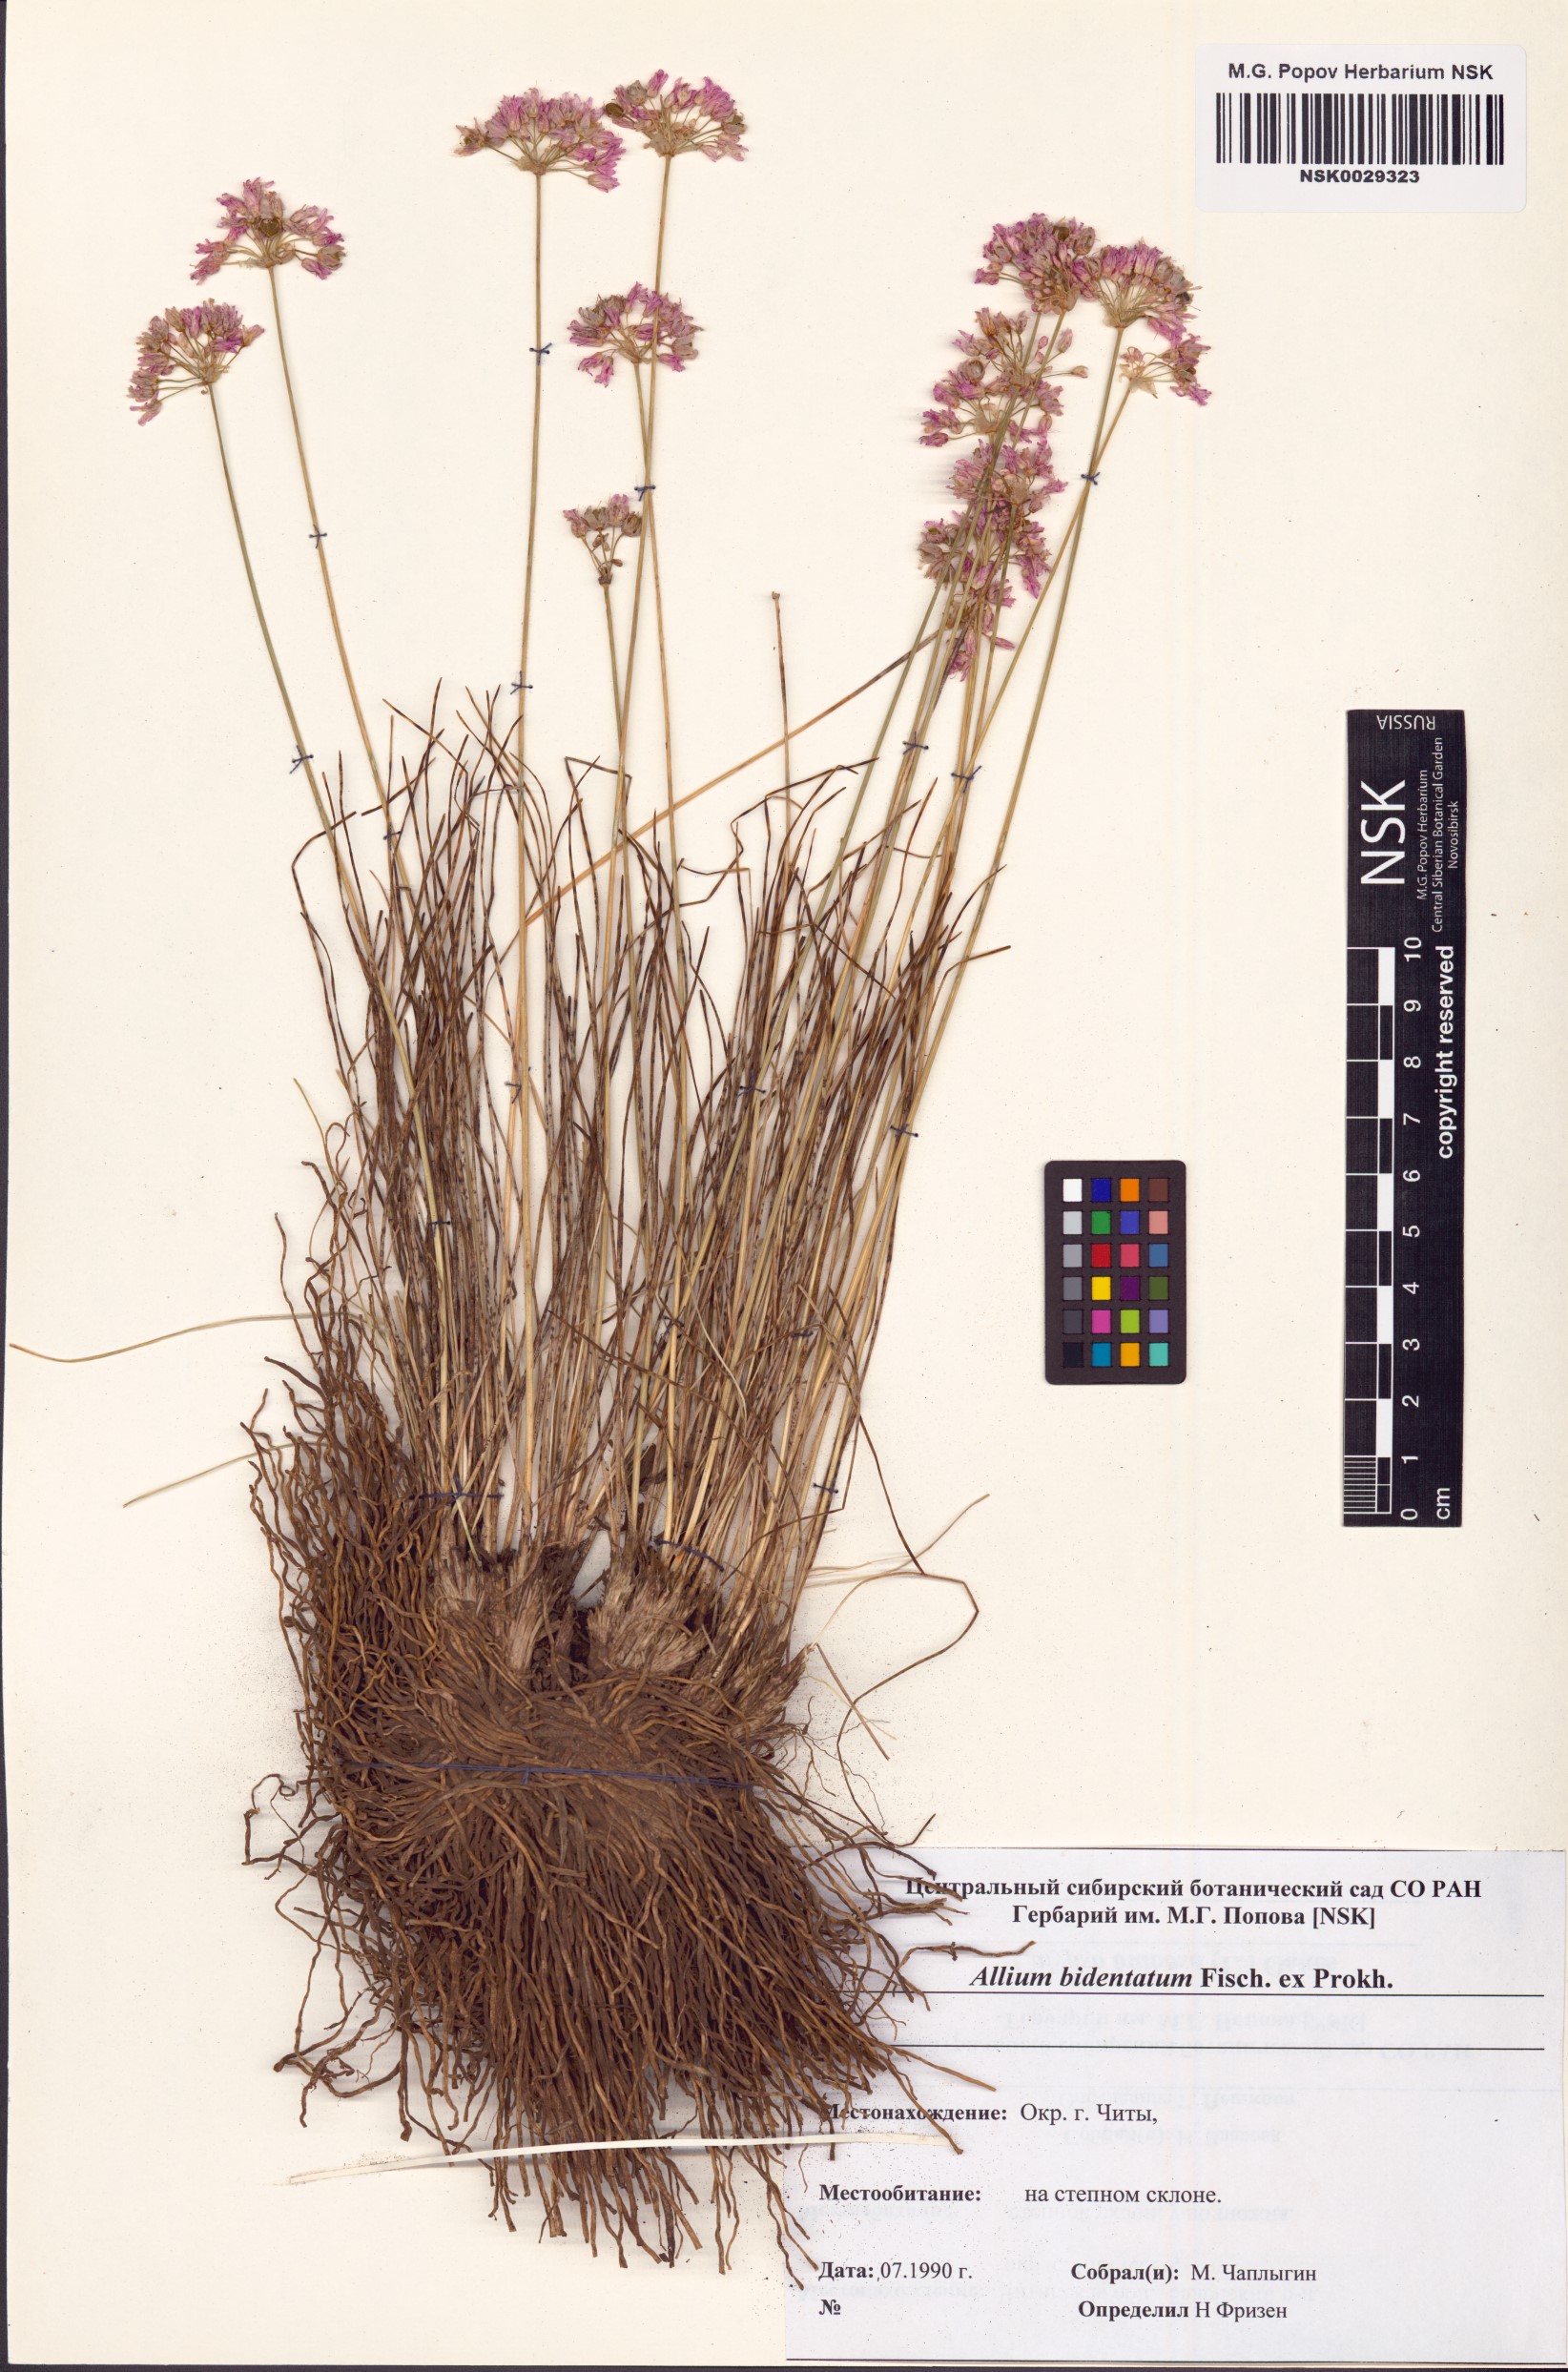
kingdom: Plantae
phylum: Tracheophyta
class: Liliopsida
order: Asparagales
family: Amaryllidaceae
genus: Allium
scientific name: Allium bidentatum
